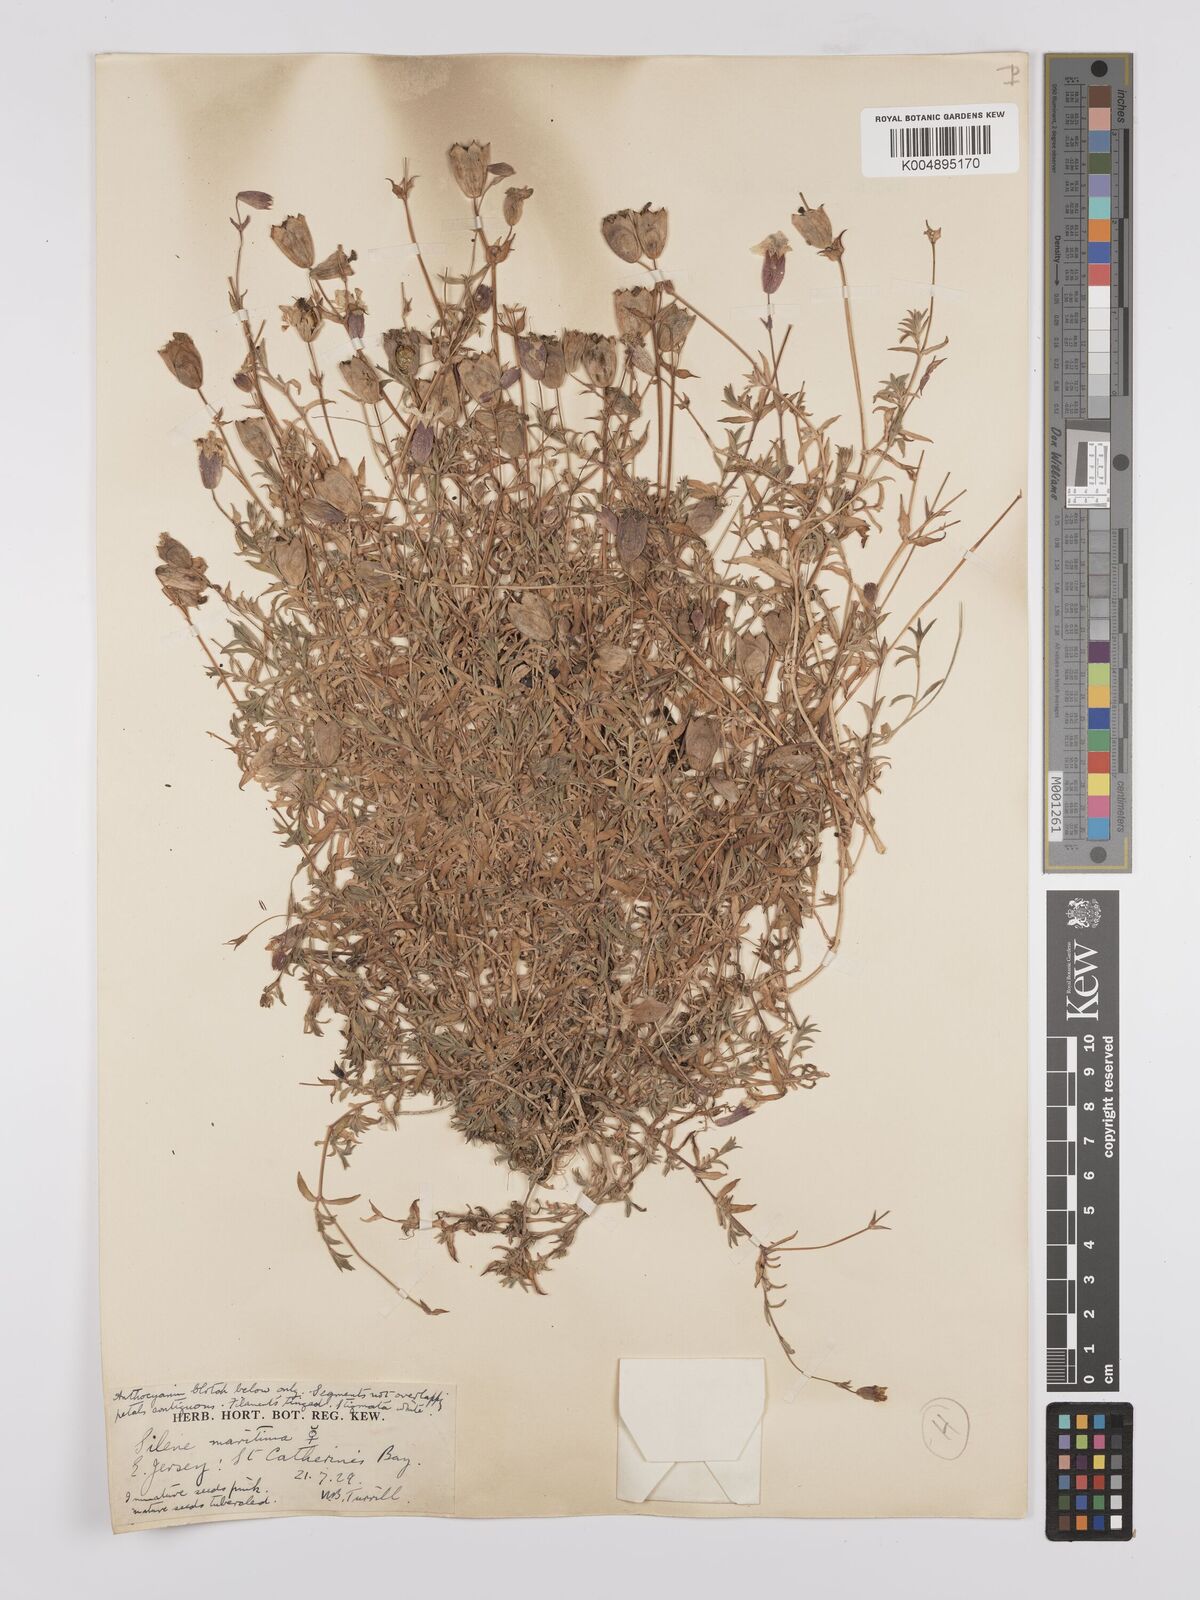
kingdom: Plantae
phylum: Tracheophyta
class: Magnoliopsida
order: Caryophyllales
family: Caryophyllaceae
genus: Silene
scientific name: Silene uniflora
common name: Sea campion
